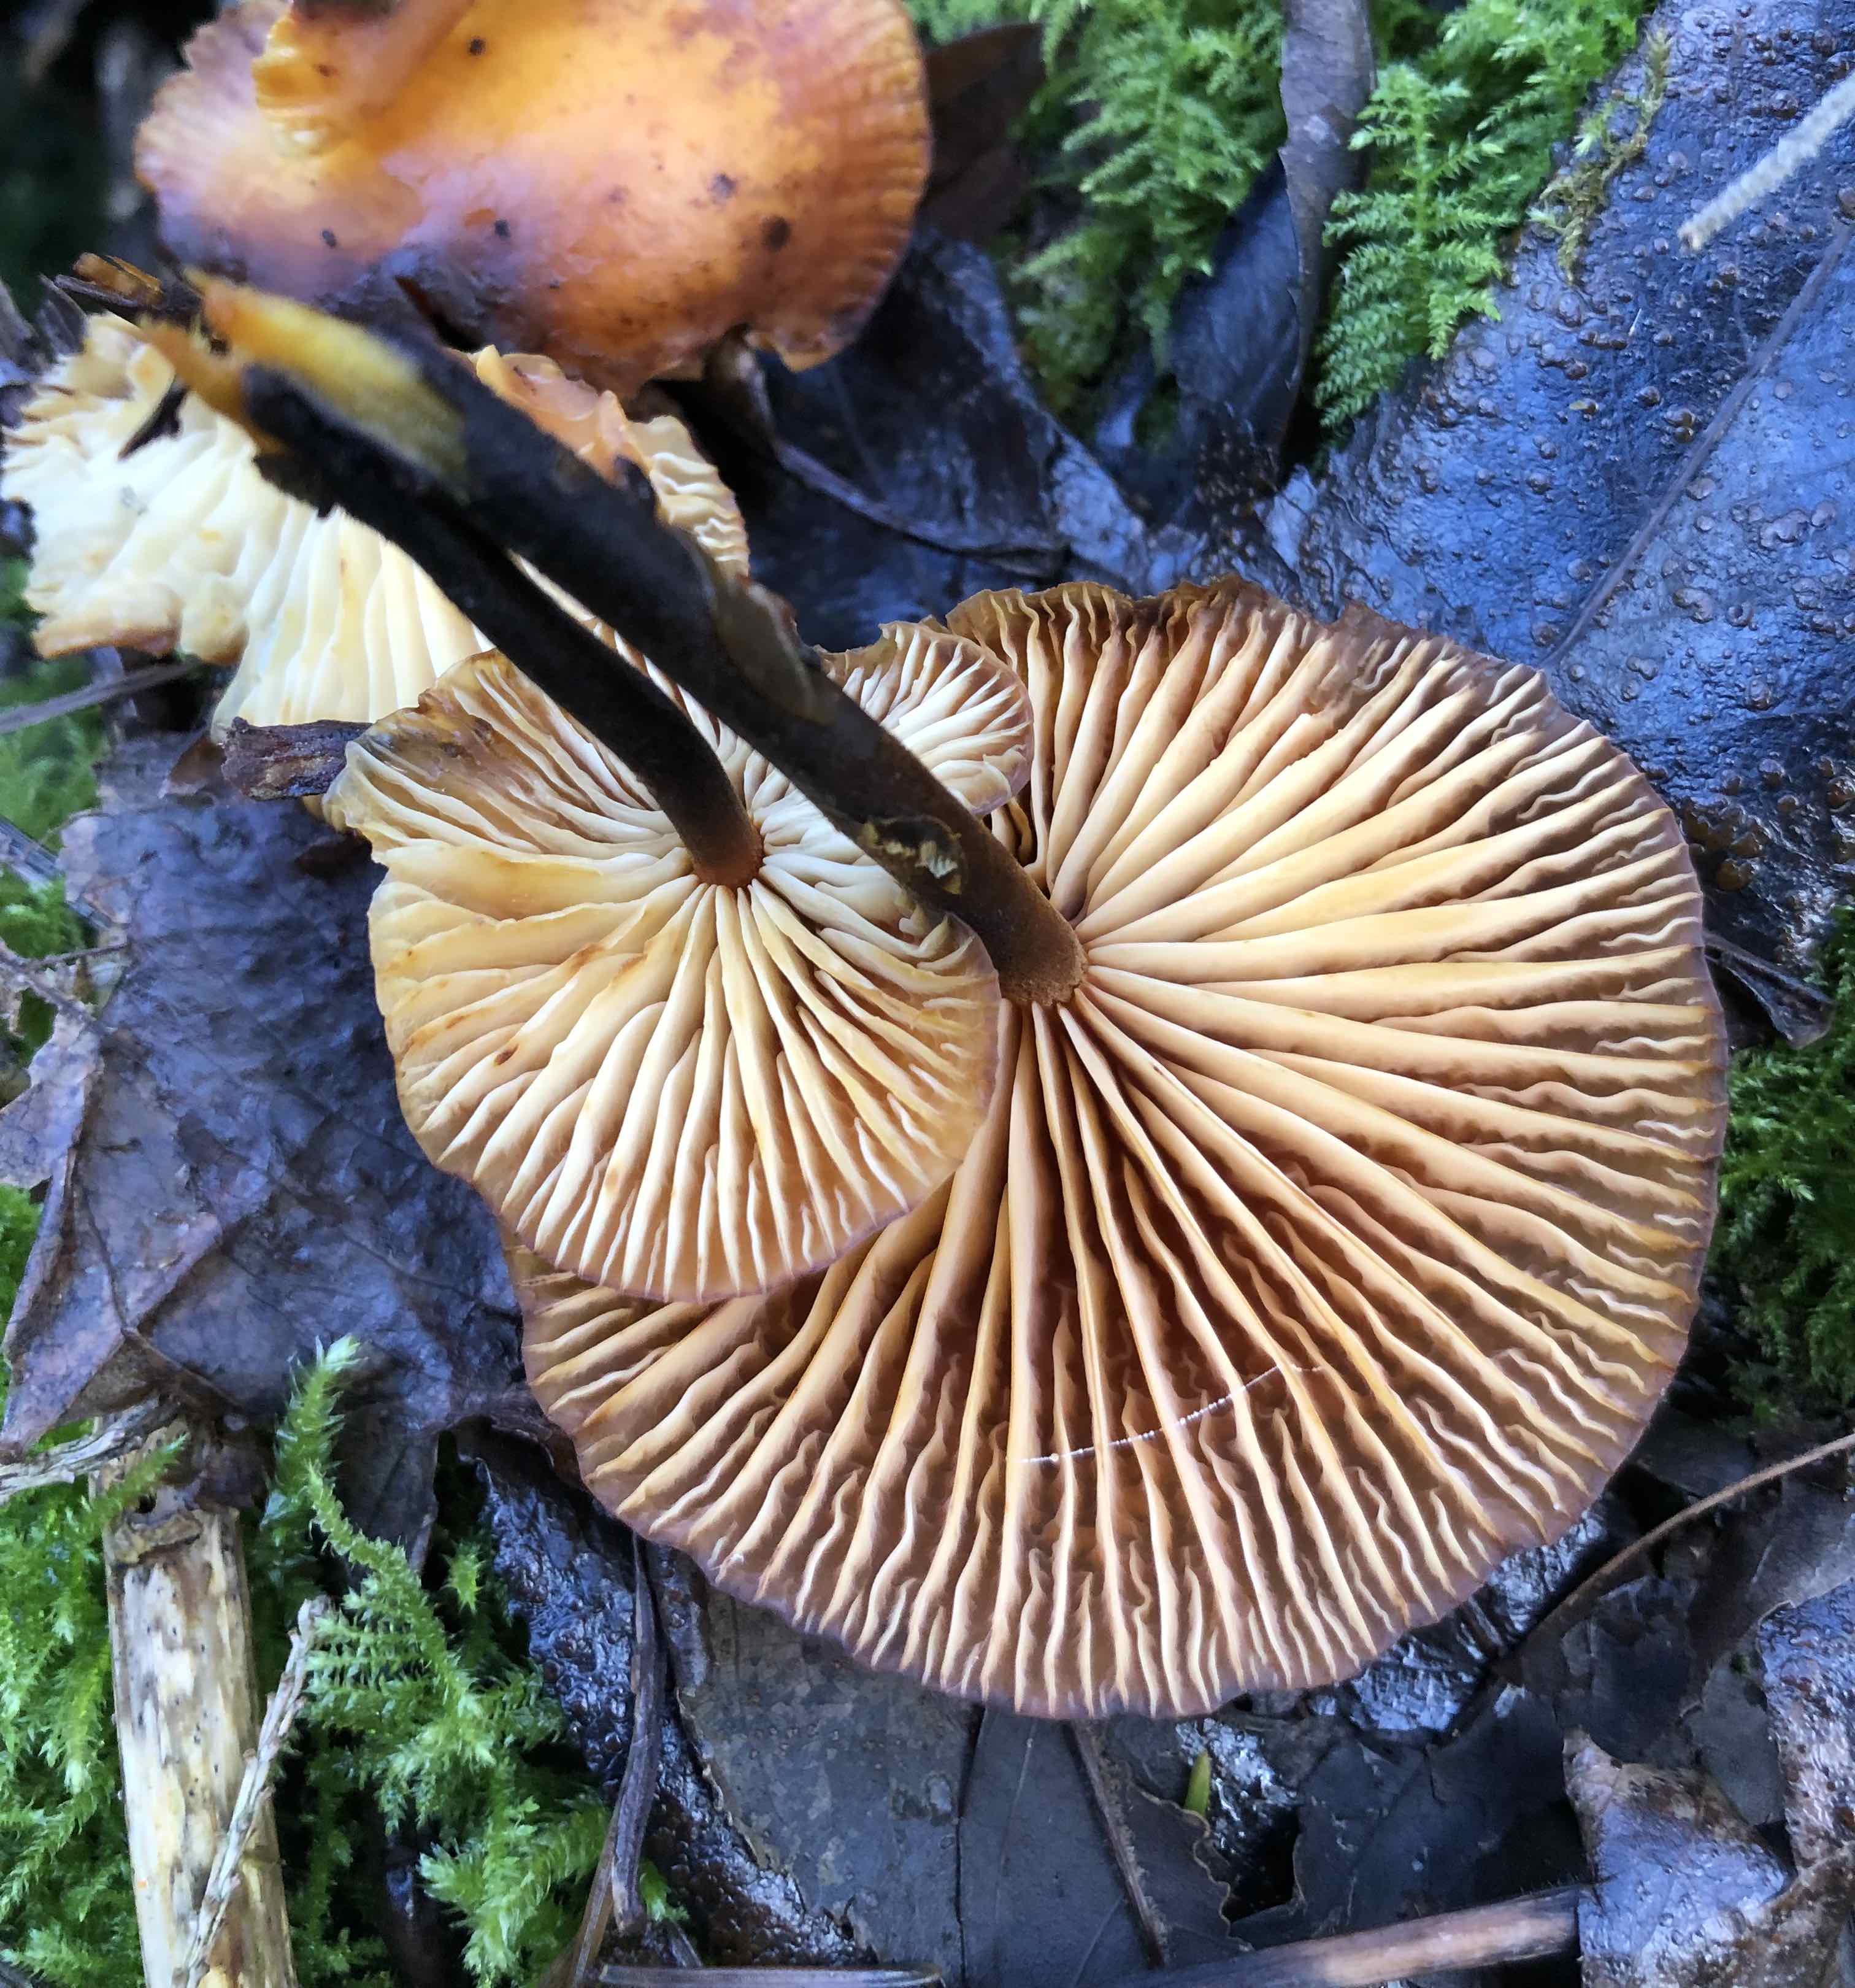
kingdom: Fungi
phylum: Basidiomycota
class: Agaricomycetes
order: Agaricales
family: Physalacriaceae
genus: Flammulina
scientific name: Flammulina
